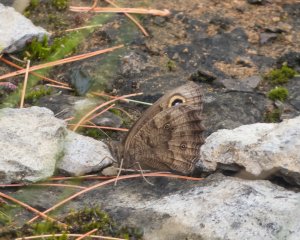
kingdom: Animalia
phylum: Arthropoda
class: Insecta
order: Lepidoptera
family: Nymphalidae
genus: Cercyonis
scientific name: Cercyonis pegala
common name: Common Wood-Nymph
